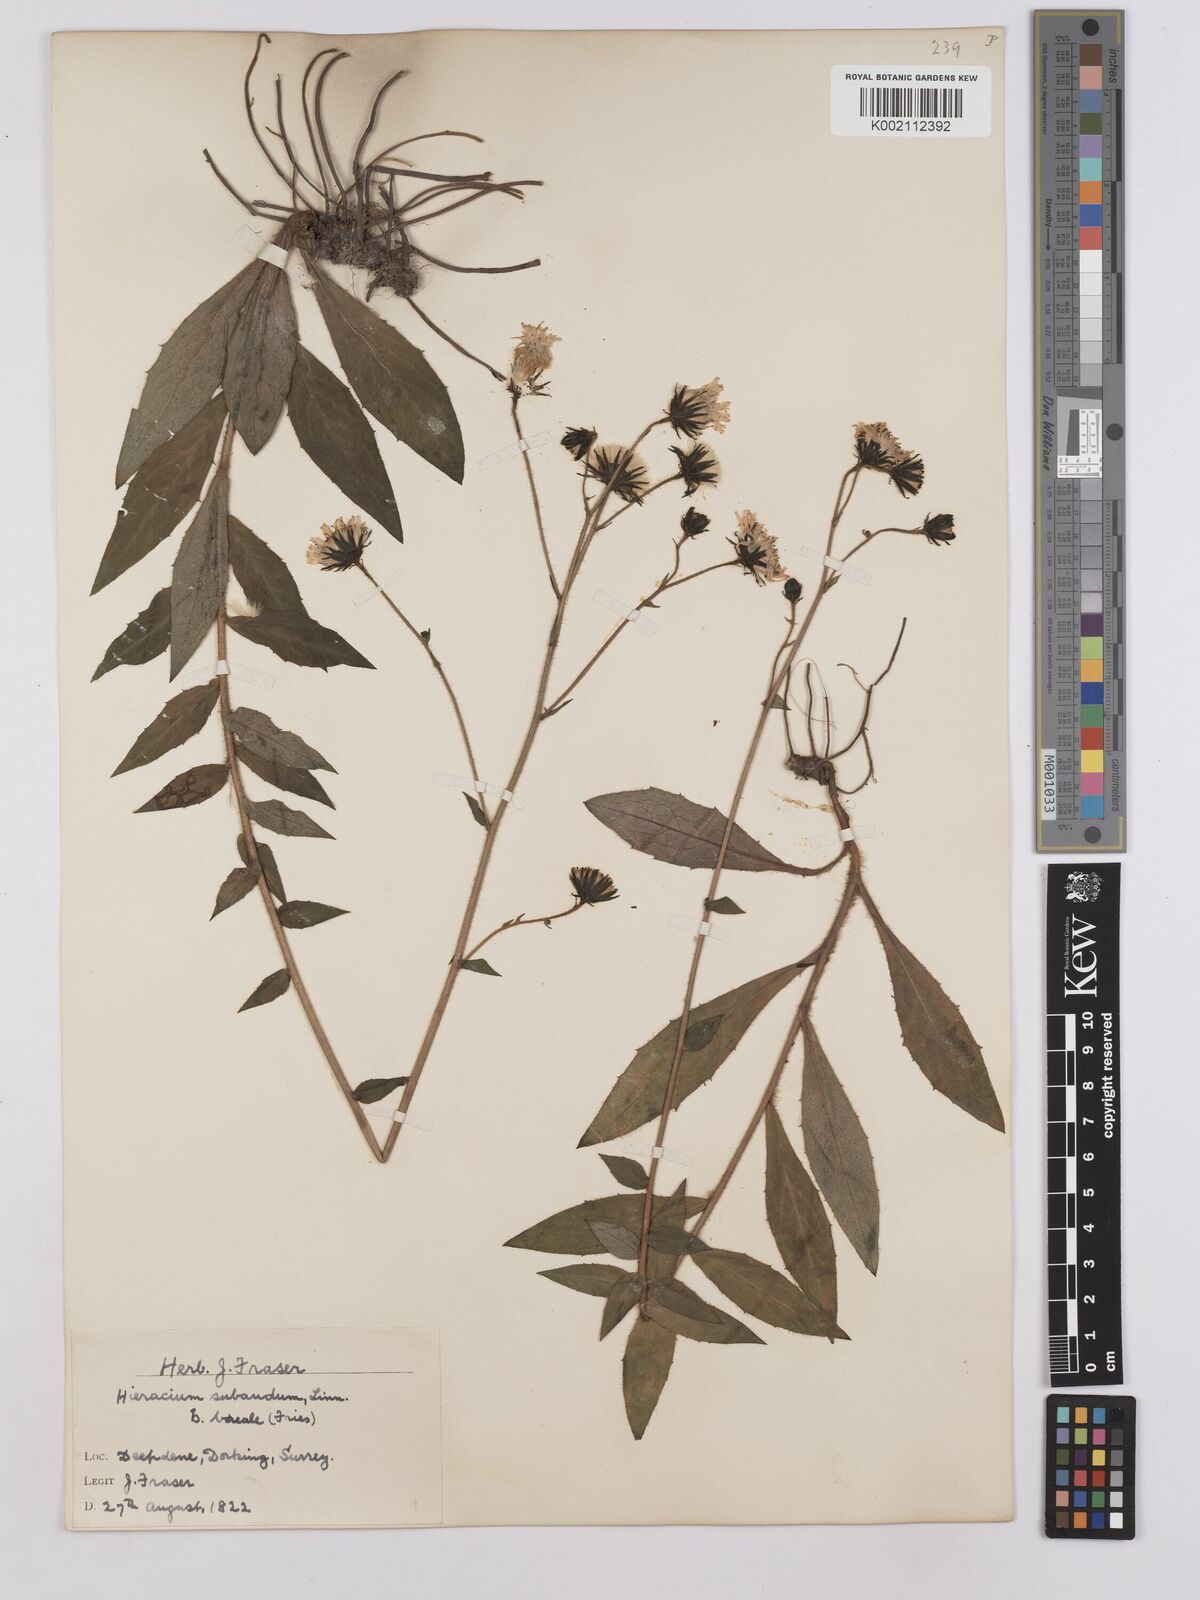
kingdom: Plantae
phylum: Tracheophyta
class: Magnoliopsida
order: Asterales
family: Asteraceae
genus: Hieracium
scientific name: Hieracium sabaudum
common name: New england hawkweed
